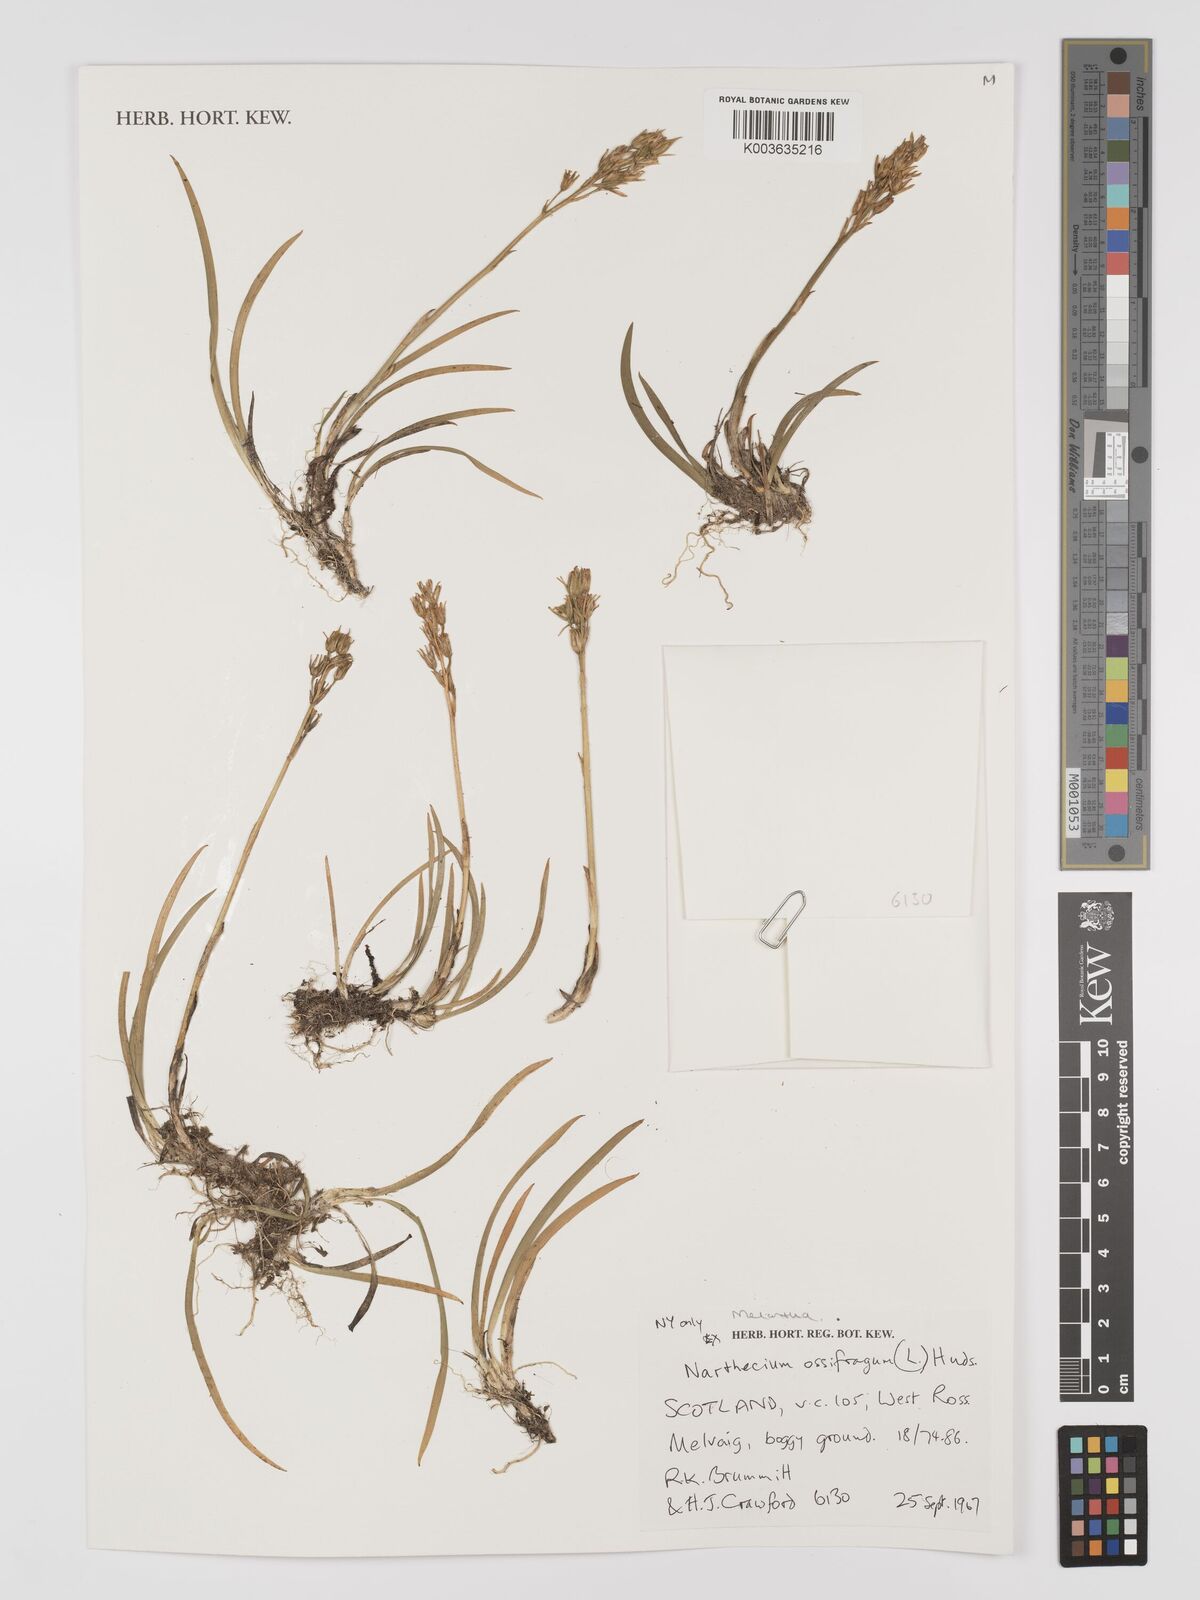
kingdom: Plantae
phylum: Tracheophyta
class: Liliopsida
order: Dioscoreales
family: Nartheciaceae
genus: Narthecium
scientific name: Narthecium
